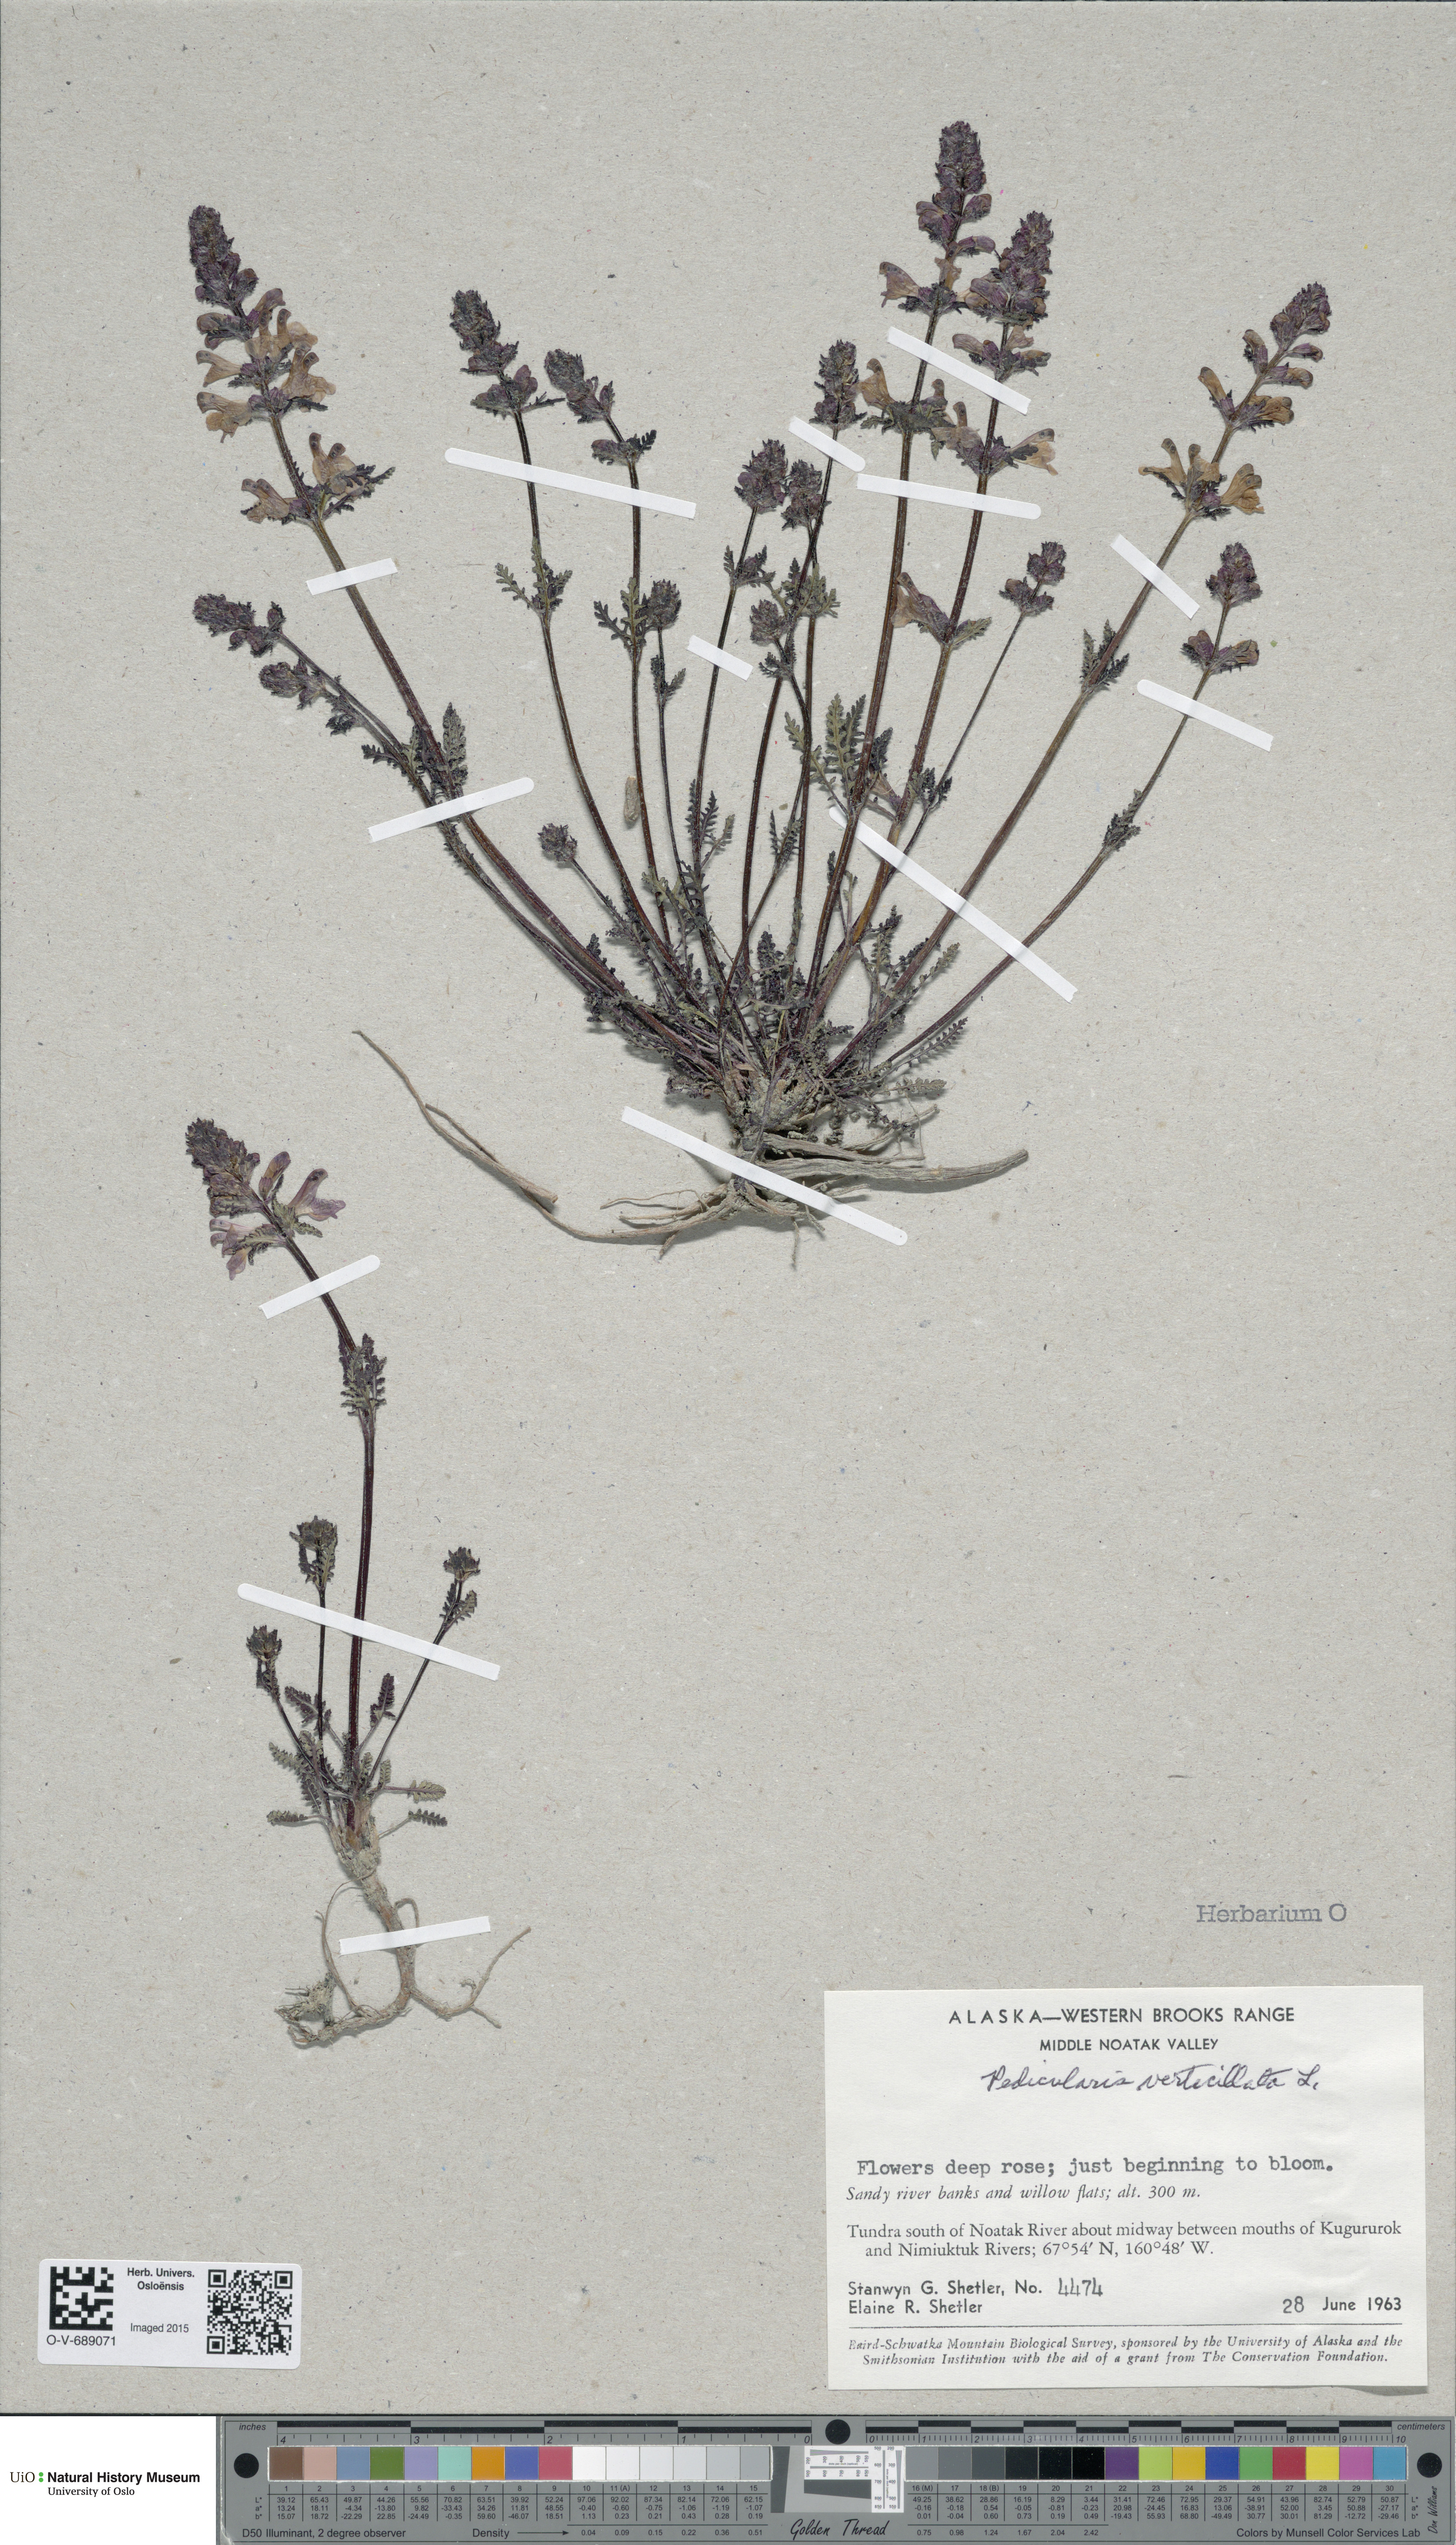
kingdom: Plantae
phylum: Tracheophyta
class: Magnoliopsida
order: Lamiales
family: Orobanchaceae
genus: Pedicularis
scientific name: Pedicularis verticillata
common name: Whorled lousewort
